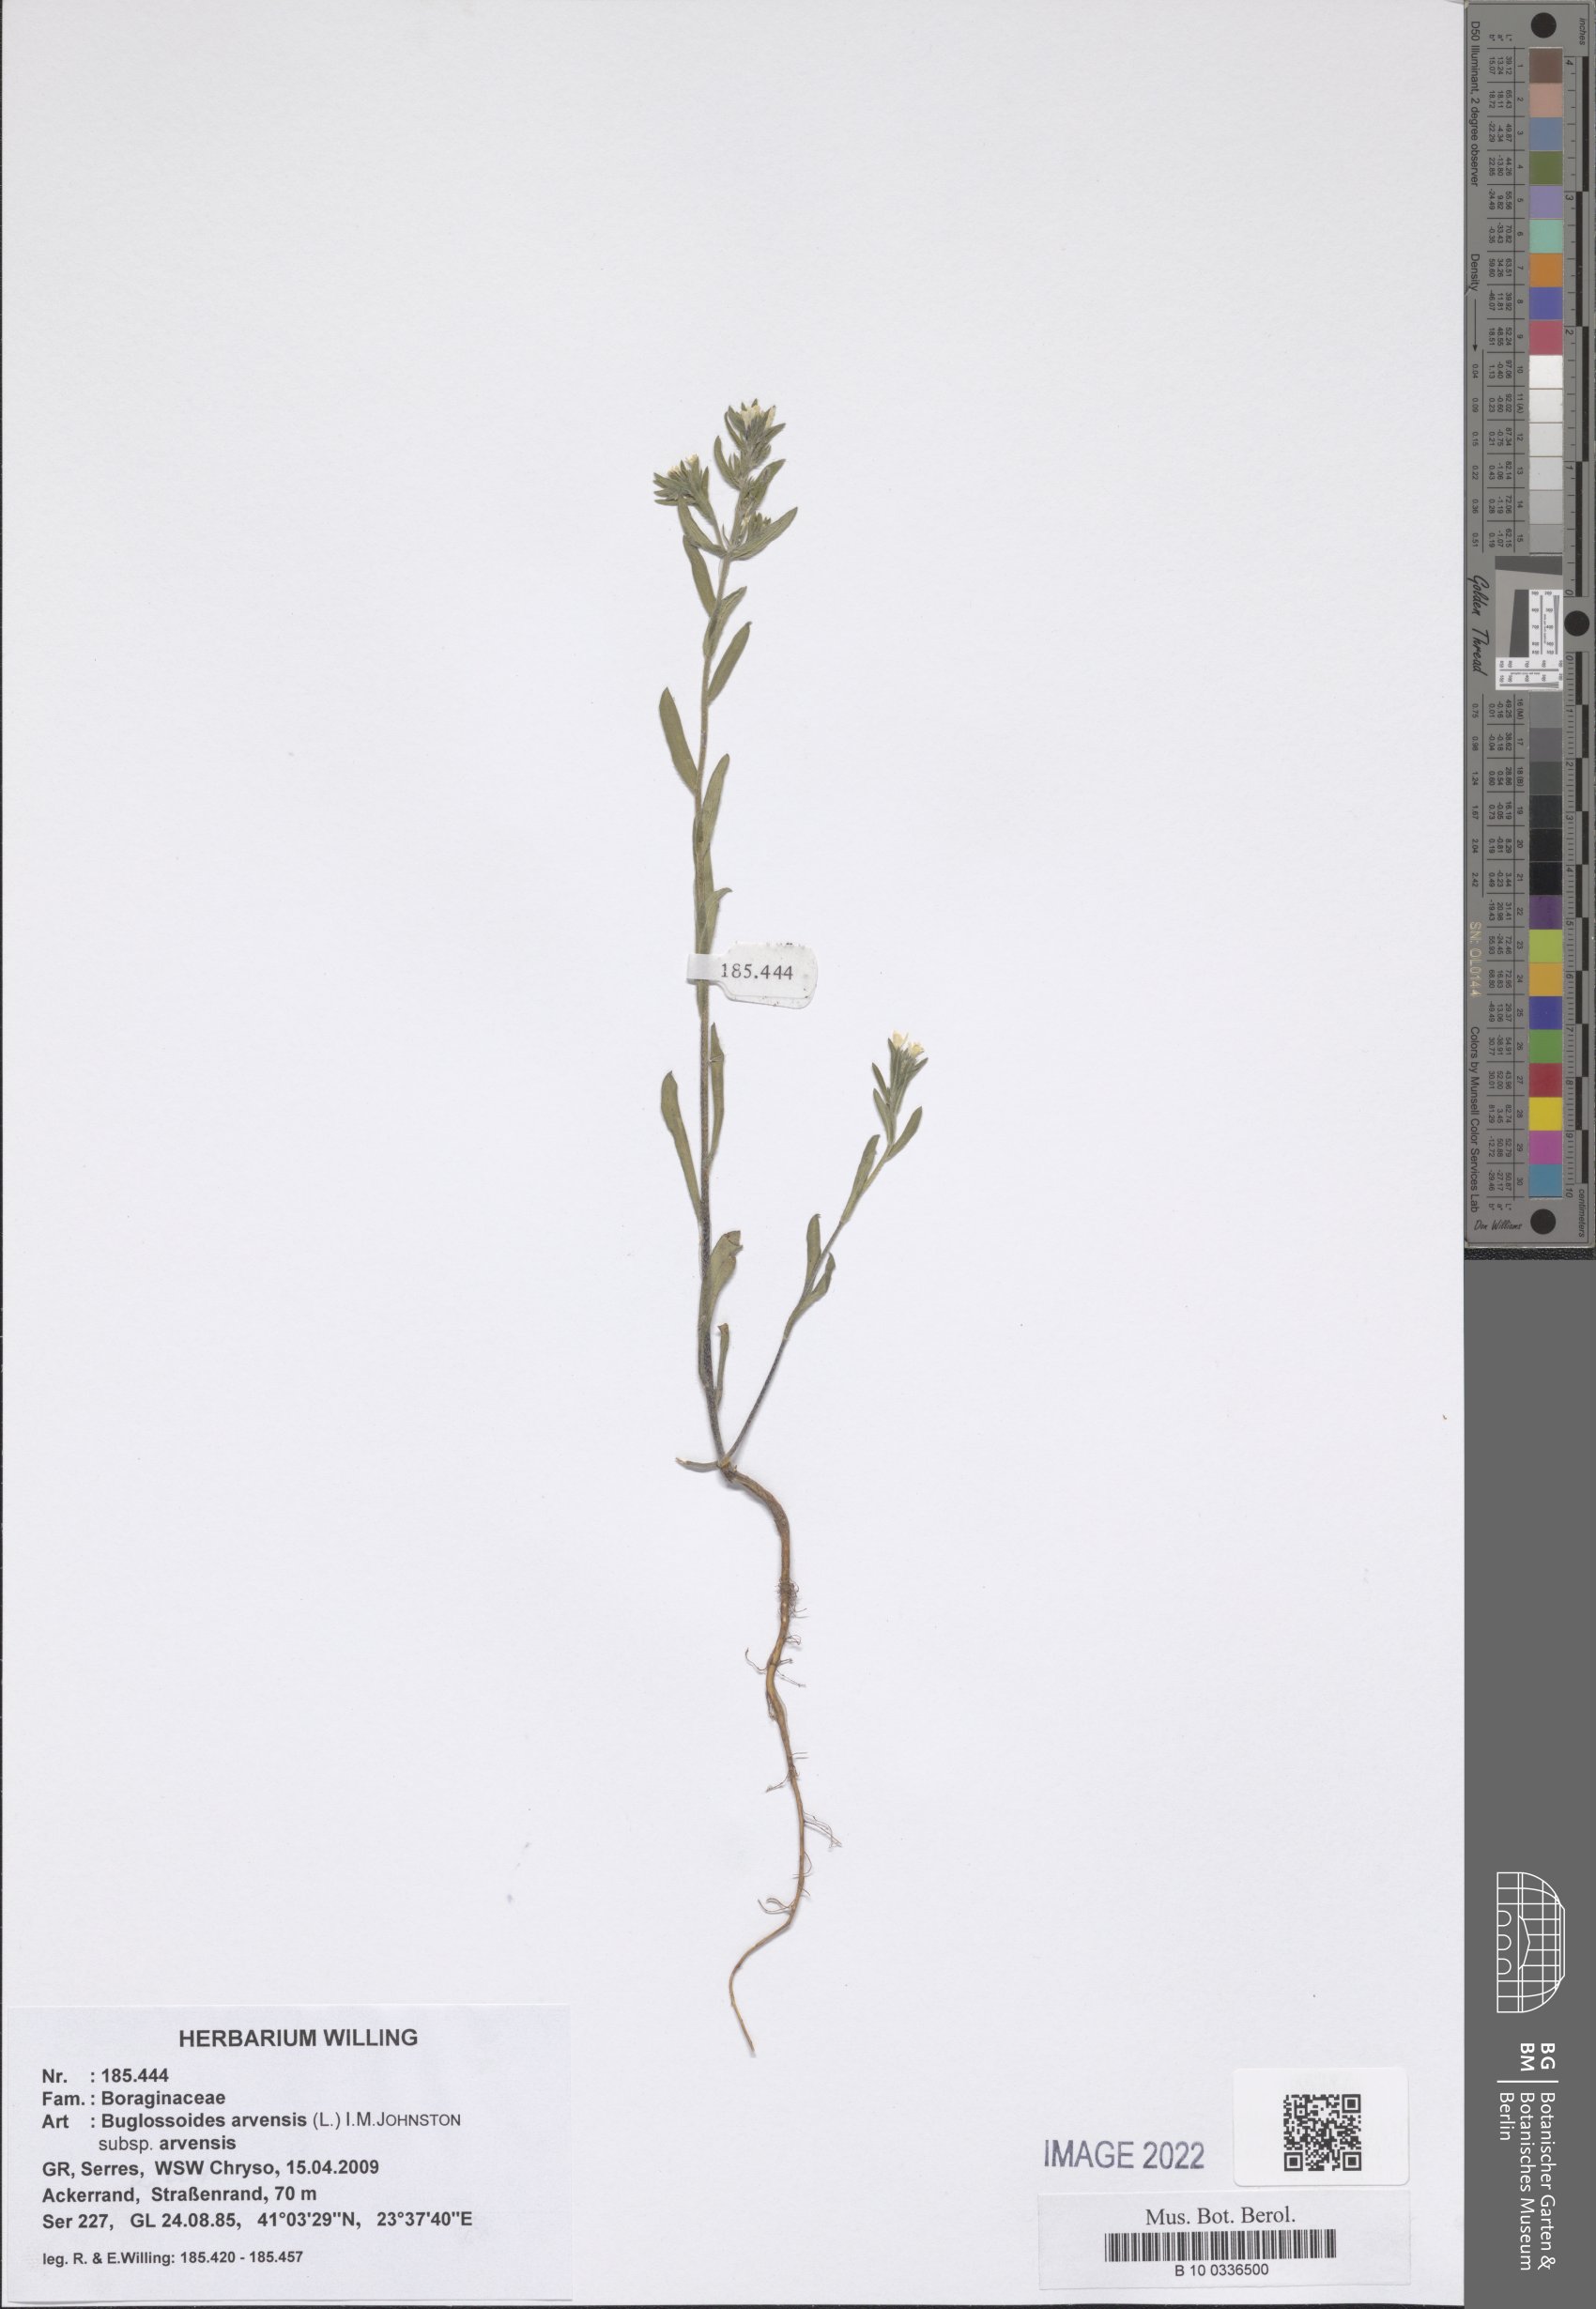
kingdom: Plantae
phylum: Tracheophyta
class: Magnoliopsida
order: Boraginales
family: Boraginaceae
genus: Buglossoides
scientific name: Buglossoides arvensis
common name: Corn gromwell
